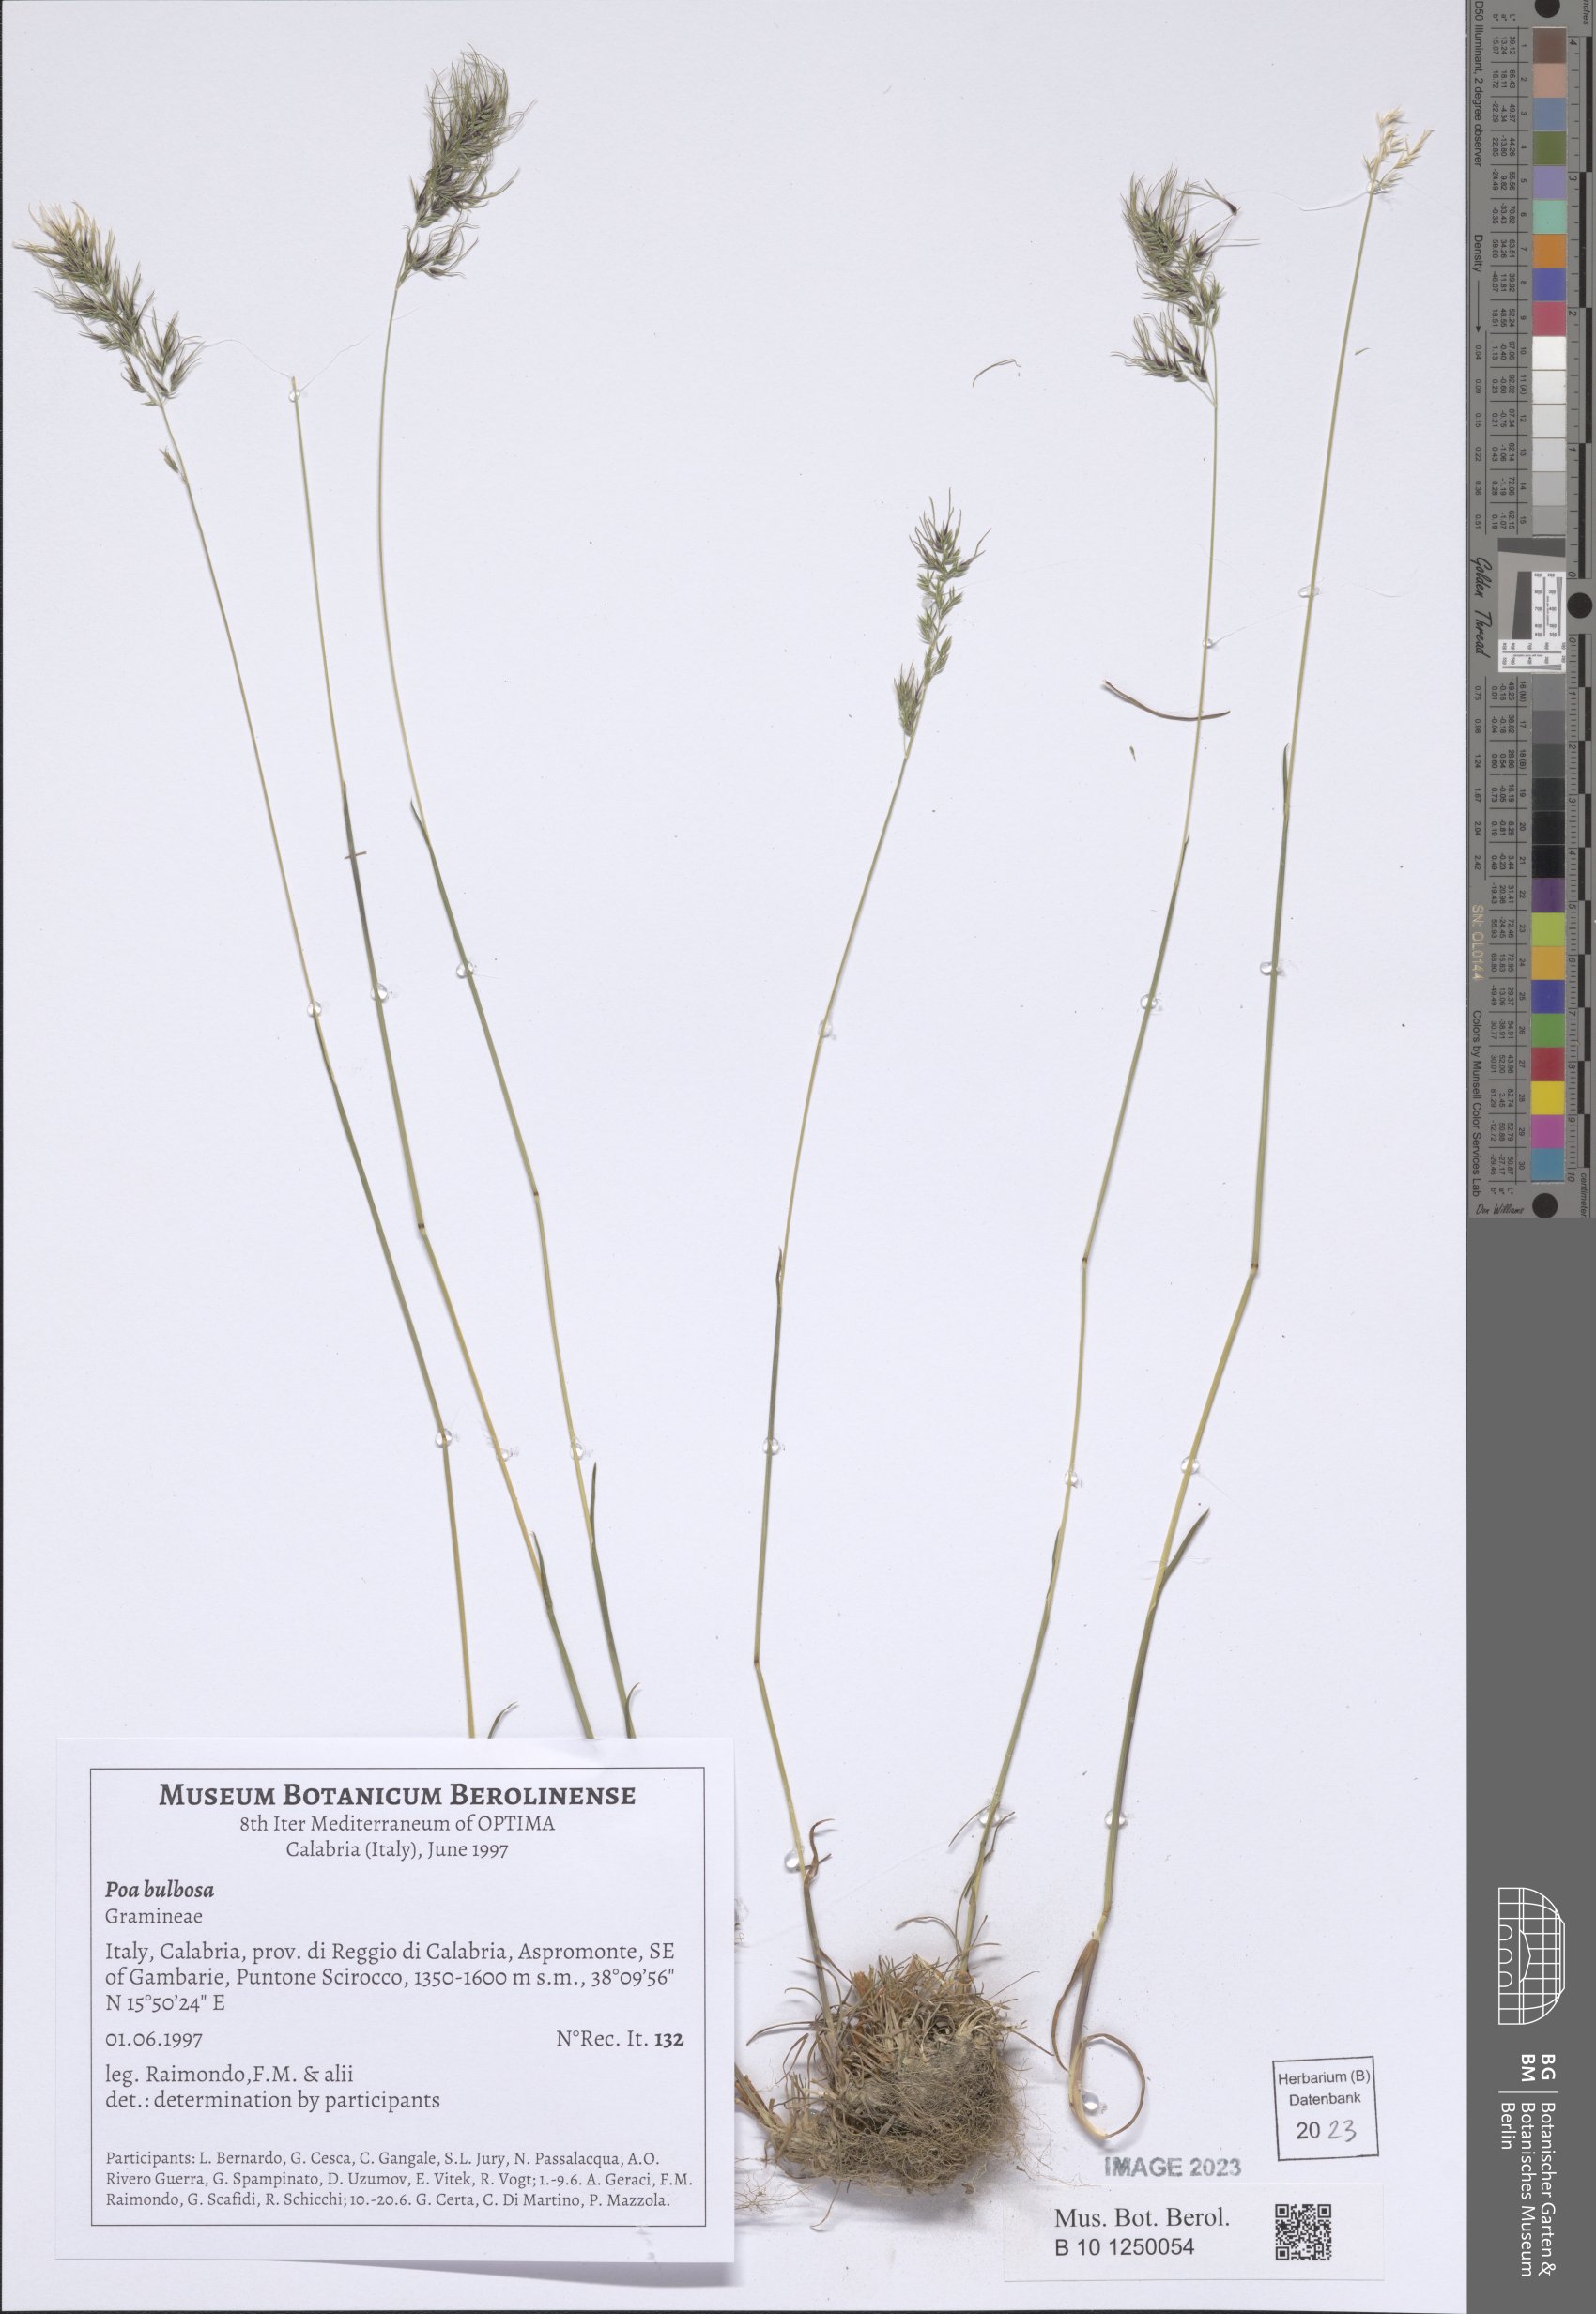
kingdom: Plantae
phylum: Tracheophyta
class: Liliopsida
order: Poales
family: Poaceae
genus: Poa
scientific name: Poa bulbosa
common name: Bulbous bluegrass
